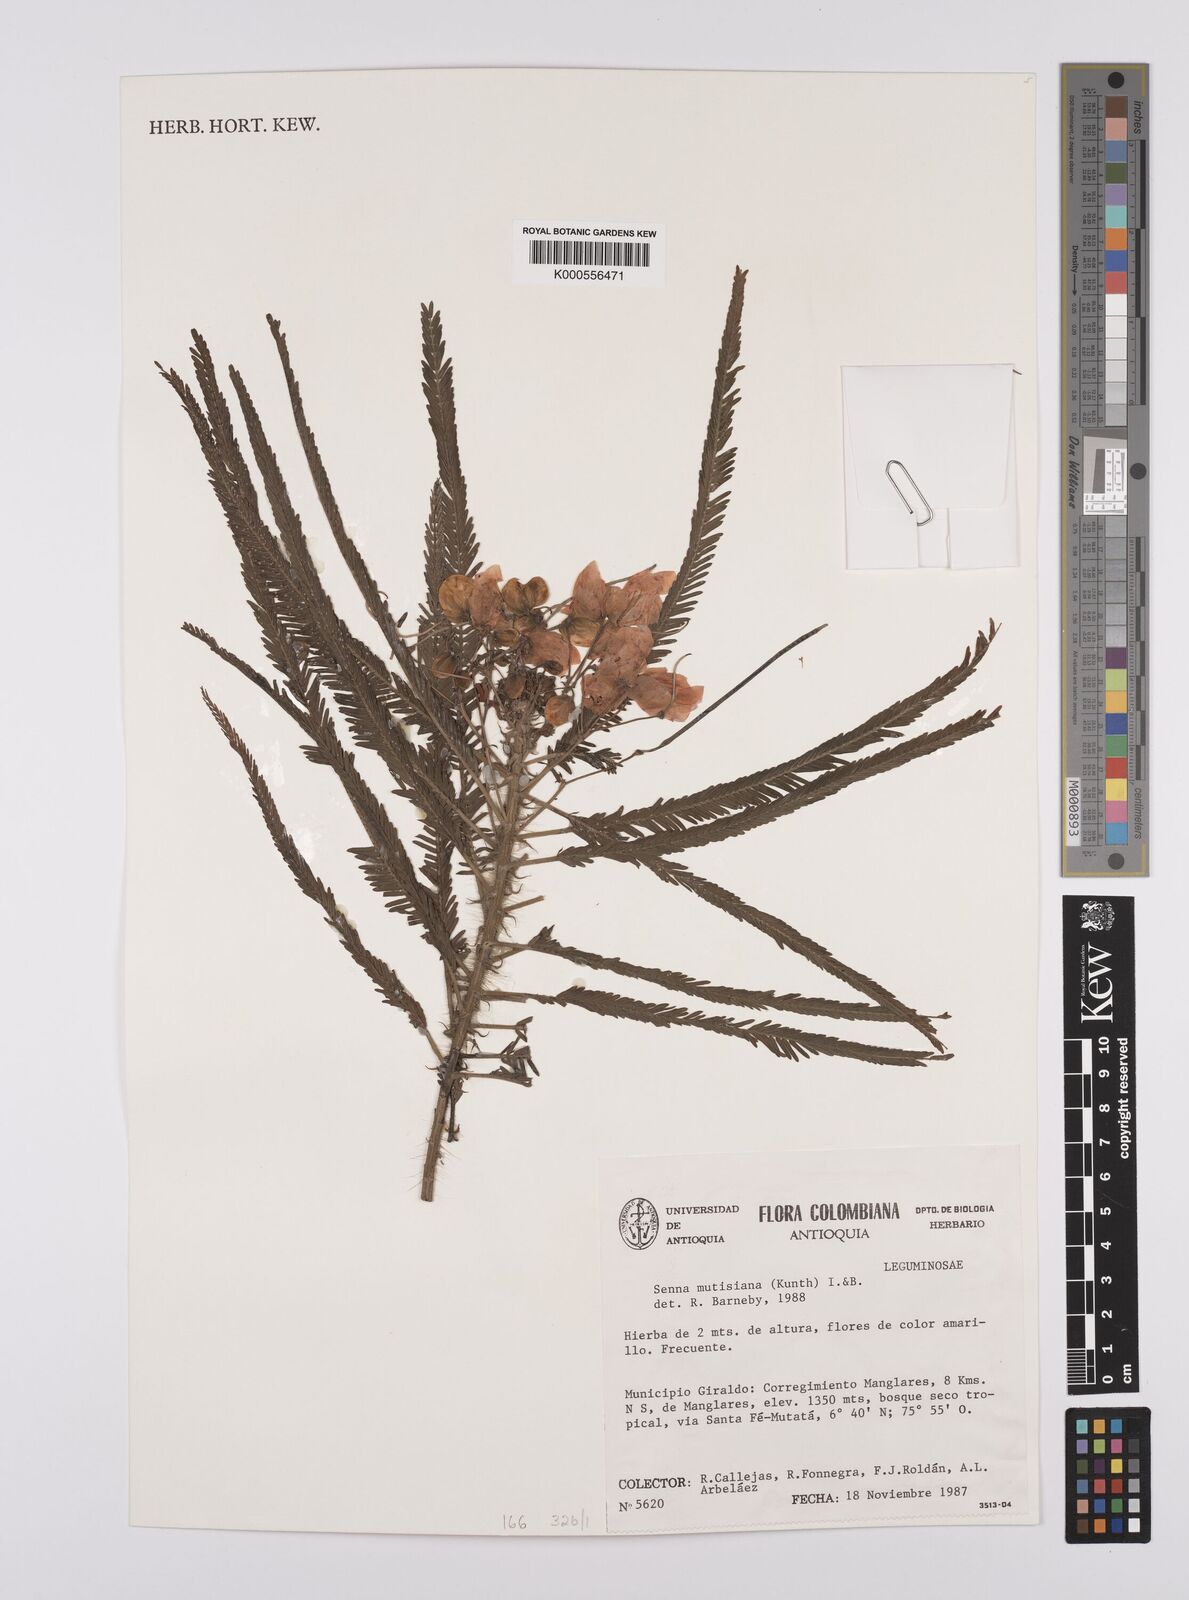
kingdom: Plantae
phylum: Tracheophyta
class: Magnoliopsida
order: Fabales
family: Fabaceae
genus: Senna
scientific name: Senna mutisiana
